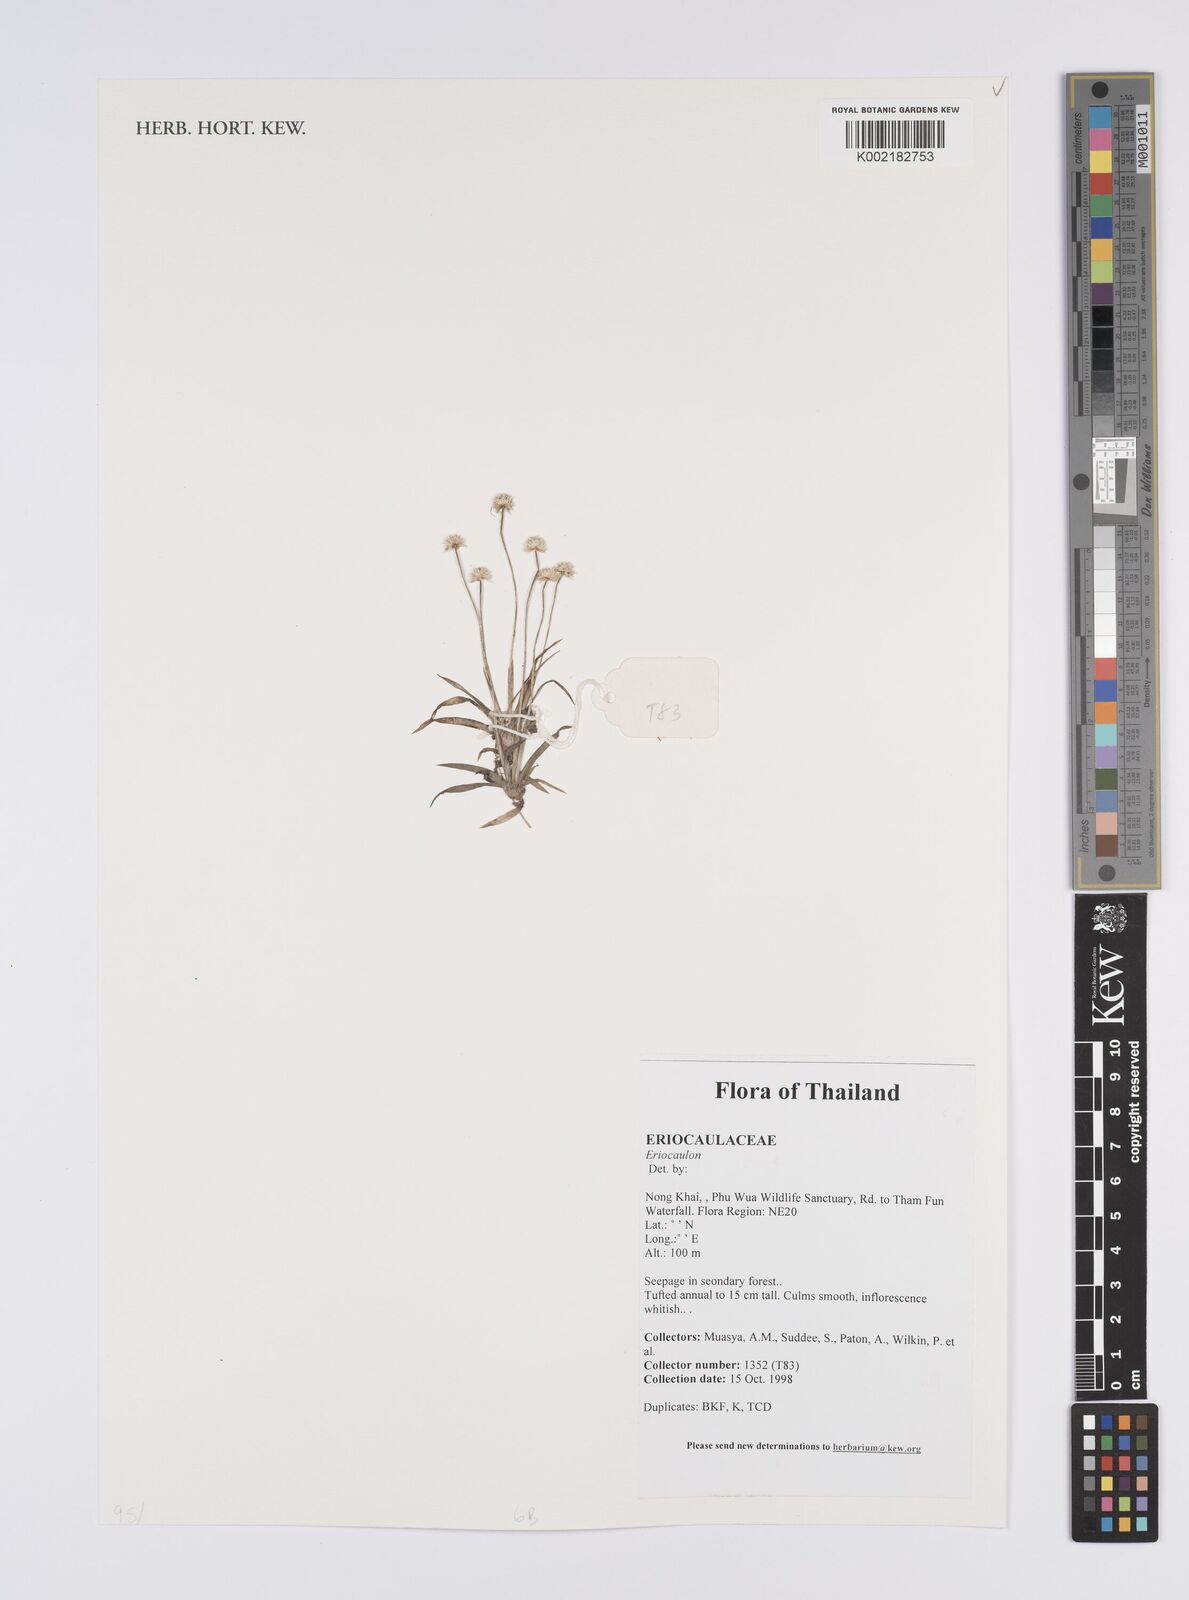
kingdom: Plantae
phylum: Tracheophyta
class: Liliopsida
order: Poales
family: Eriocaulaceae
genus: Eriocaulon
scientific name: Eriocaulon
